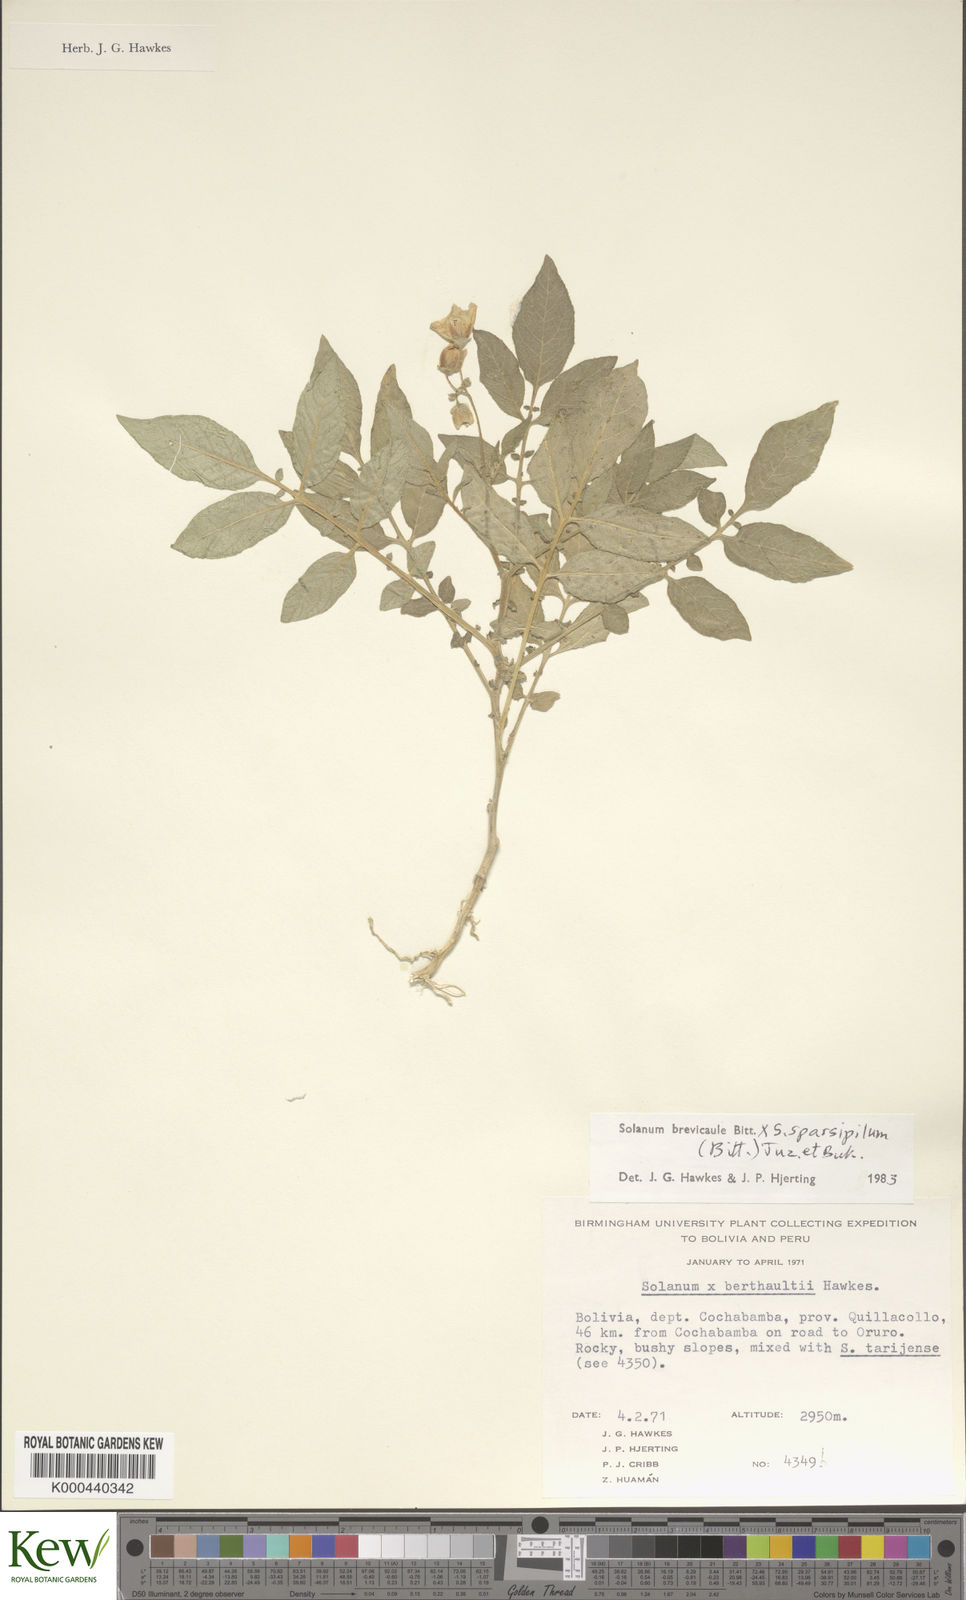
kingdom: Plantae
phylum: Tracheophyta
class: Magnoliopsida
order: Solanales
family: Solanaceae
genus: Solanum
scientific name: Solanum brevicaule
